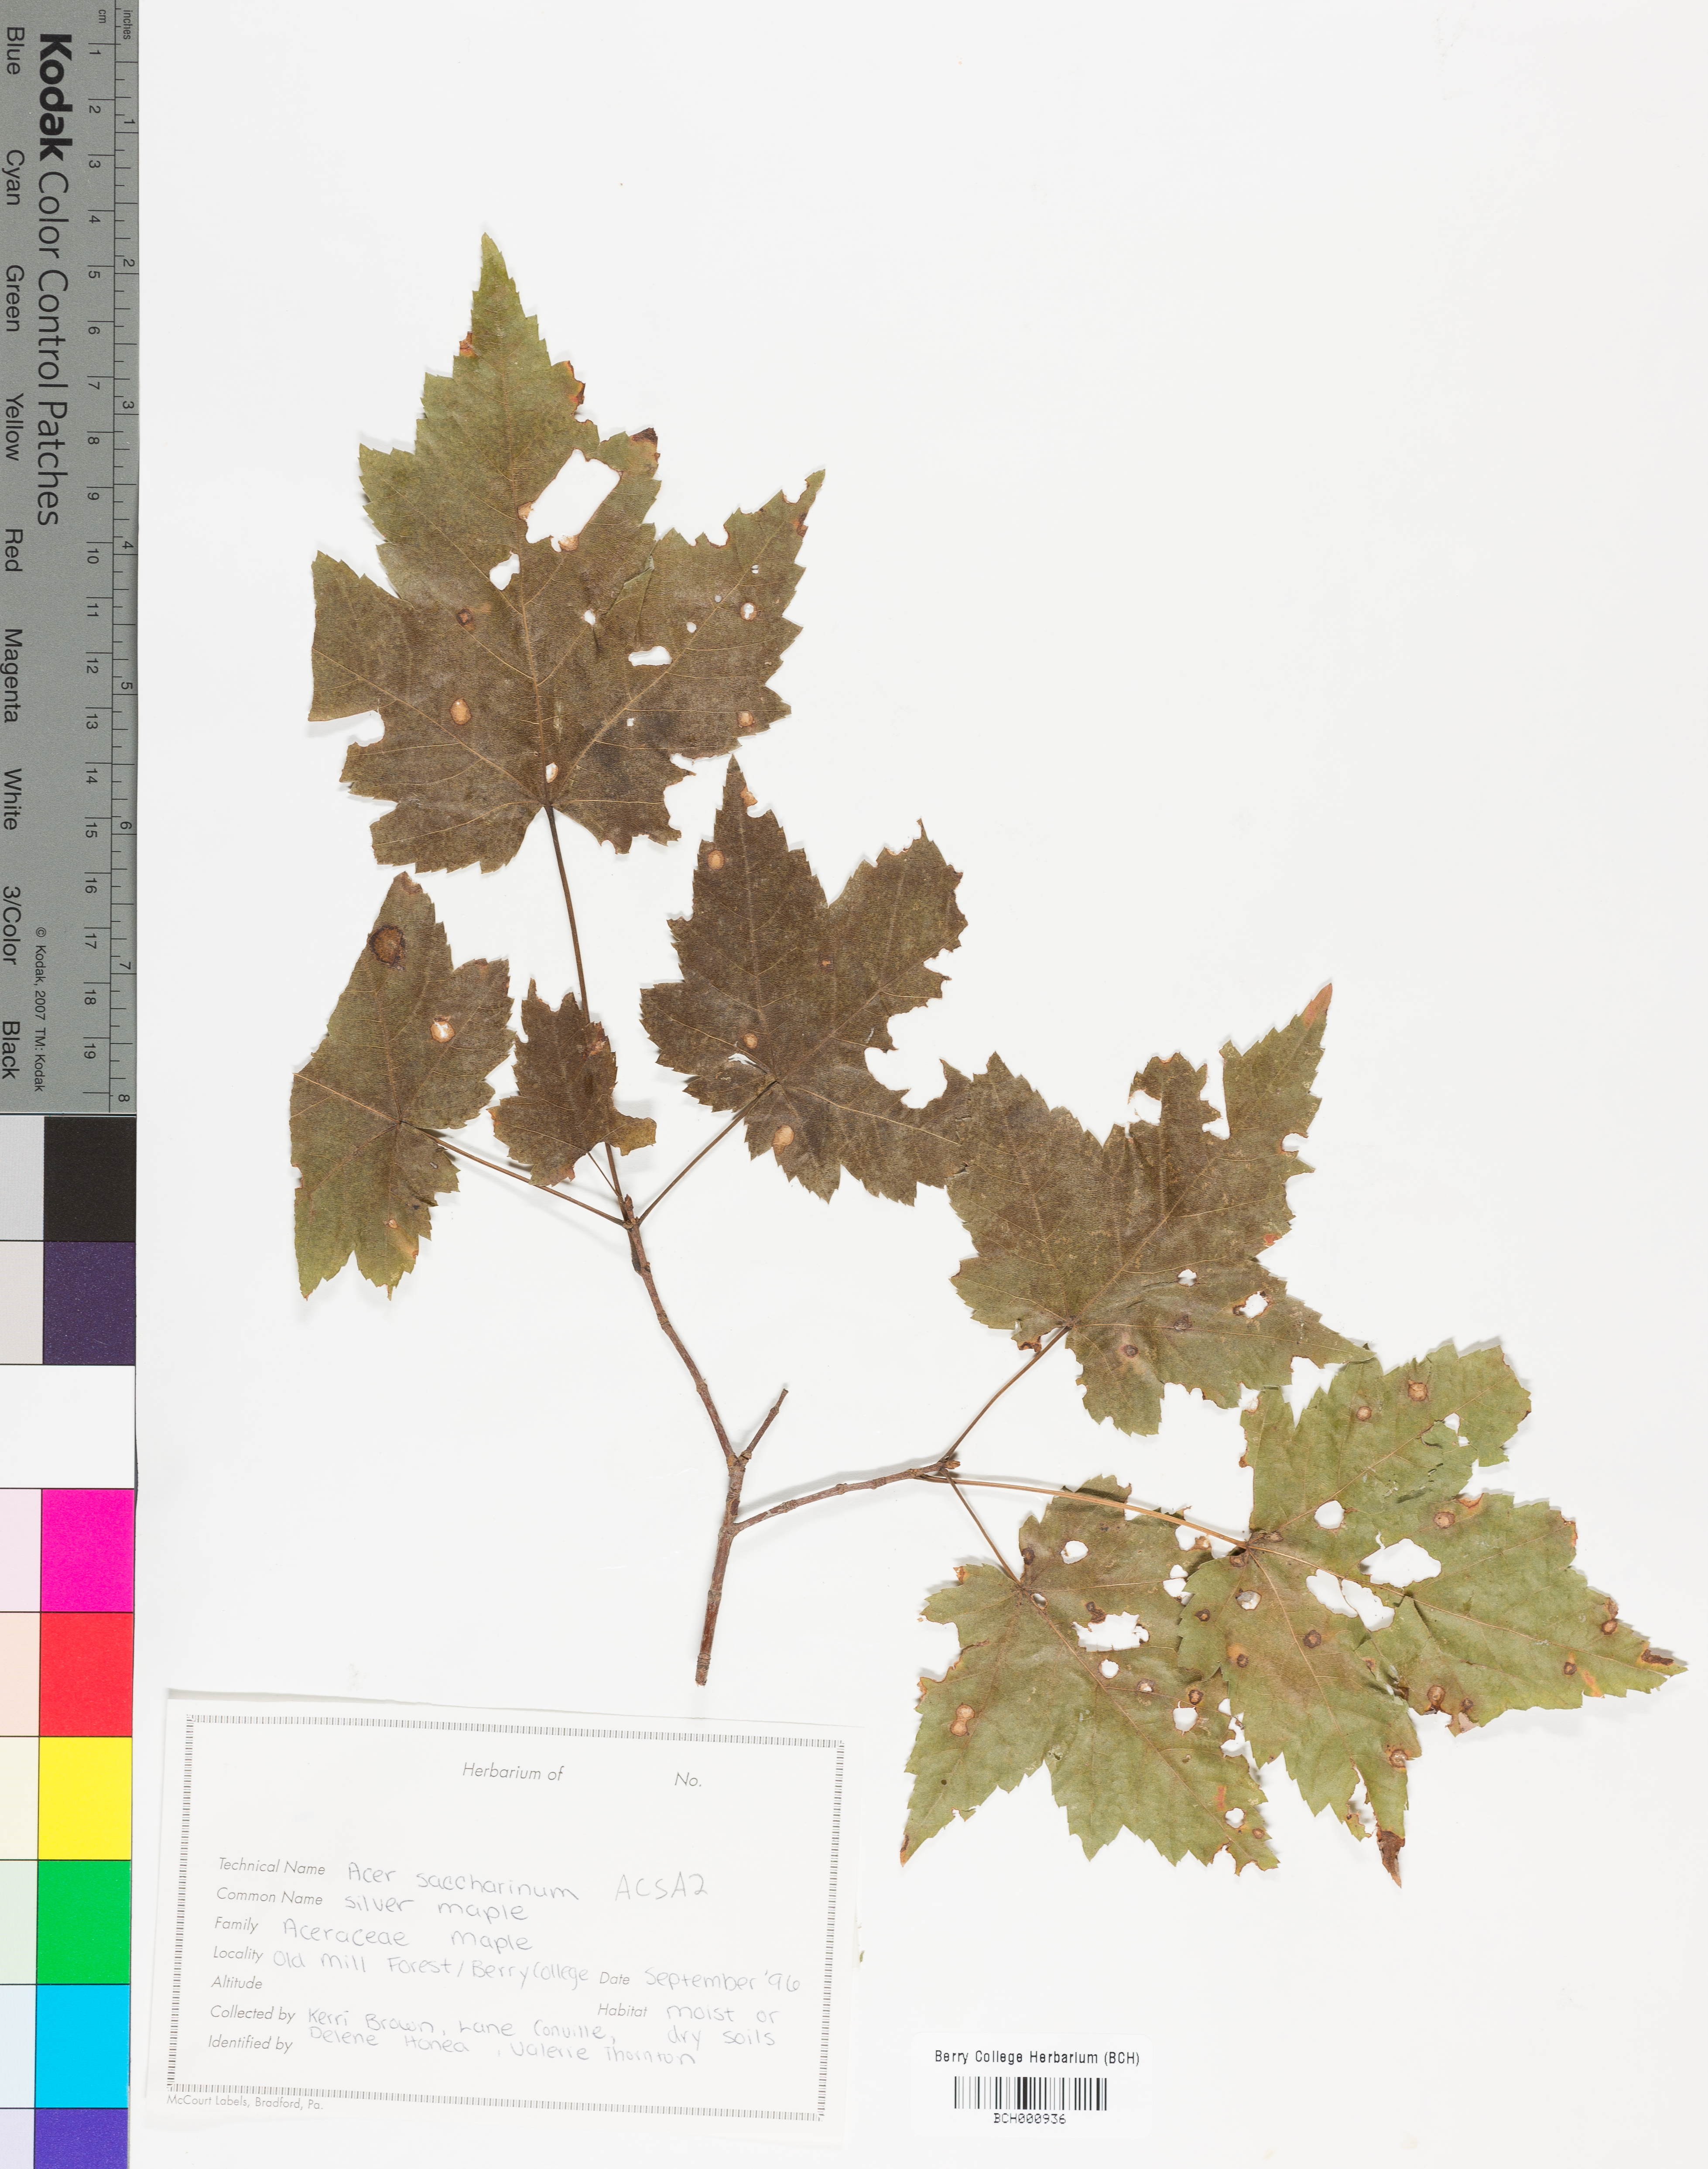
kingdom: Plantae
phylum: Tracheophyta
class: Magnoliopsida
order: Sapindales
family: Sapindaceae
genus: Acer
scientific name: Acer saccharinum
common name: Silver maple
